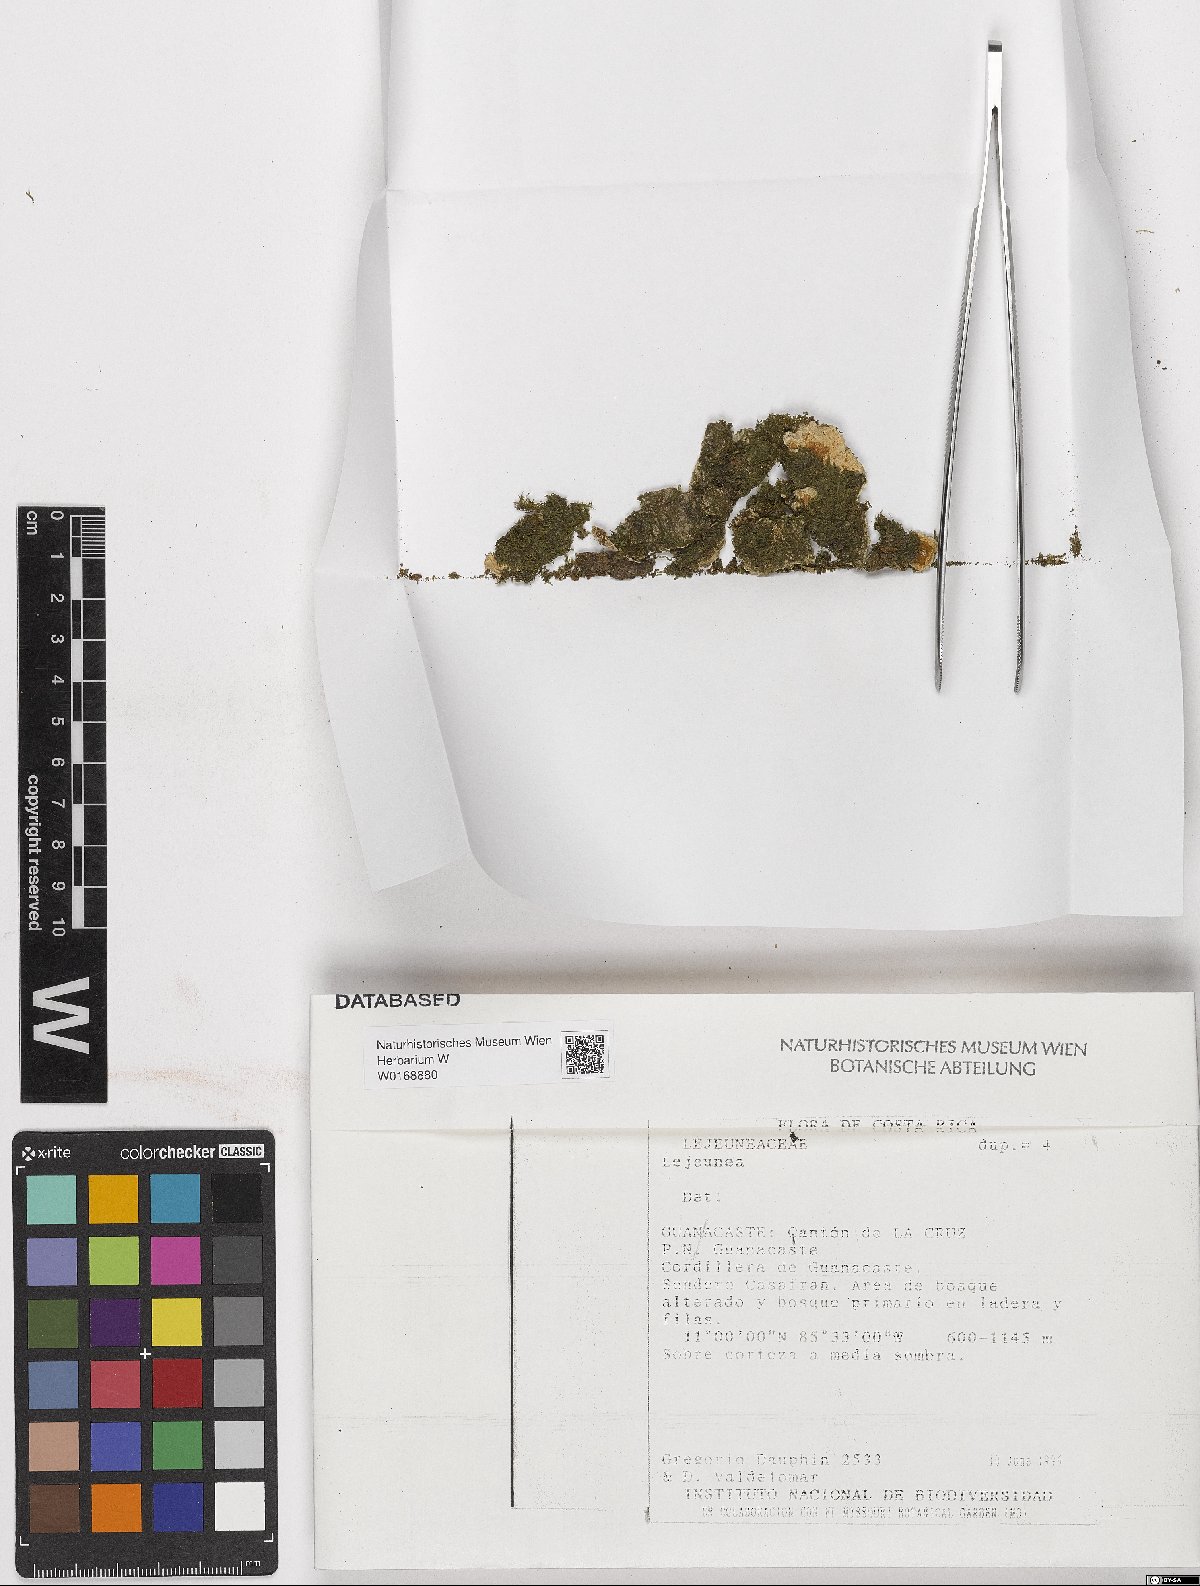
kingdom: Plantae
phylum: Marchantiophyta
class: Jungermanniopsida
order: Porellales
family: Lejeuneaceae
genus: Lejeunea
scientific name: Lejeunea
